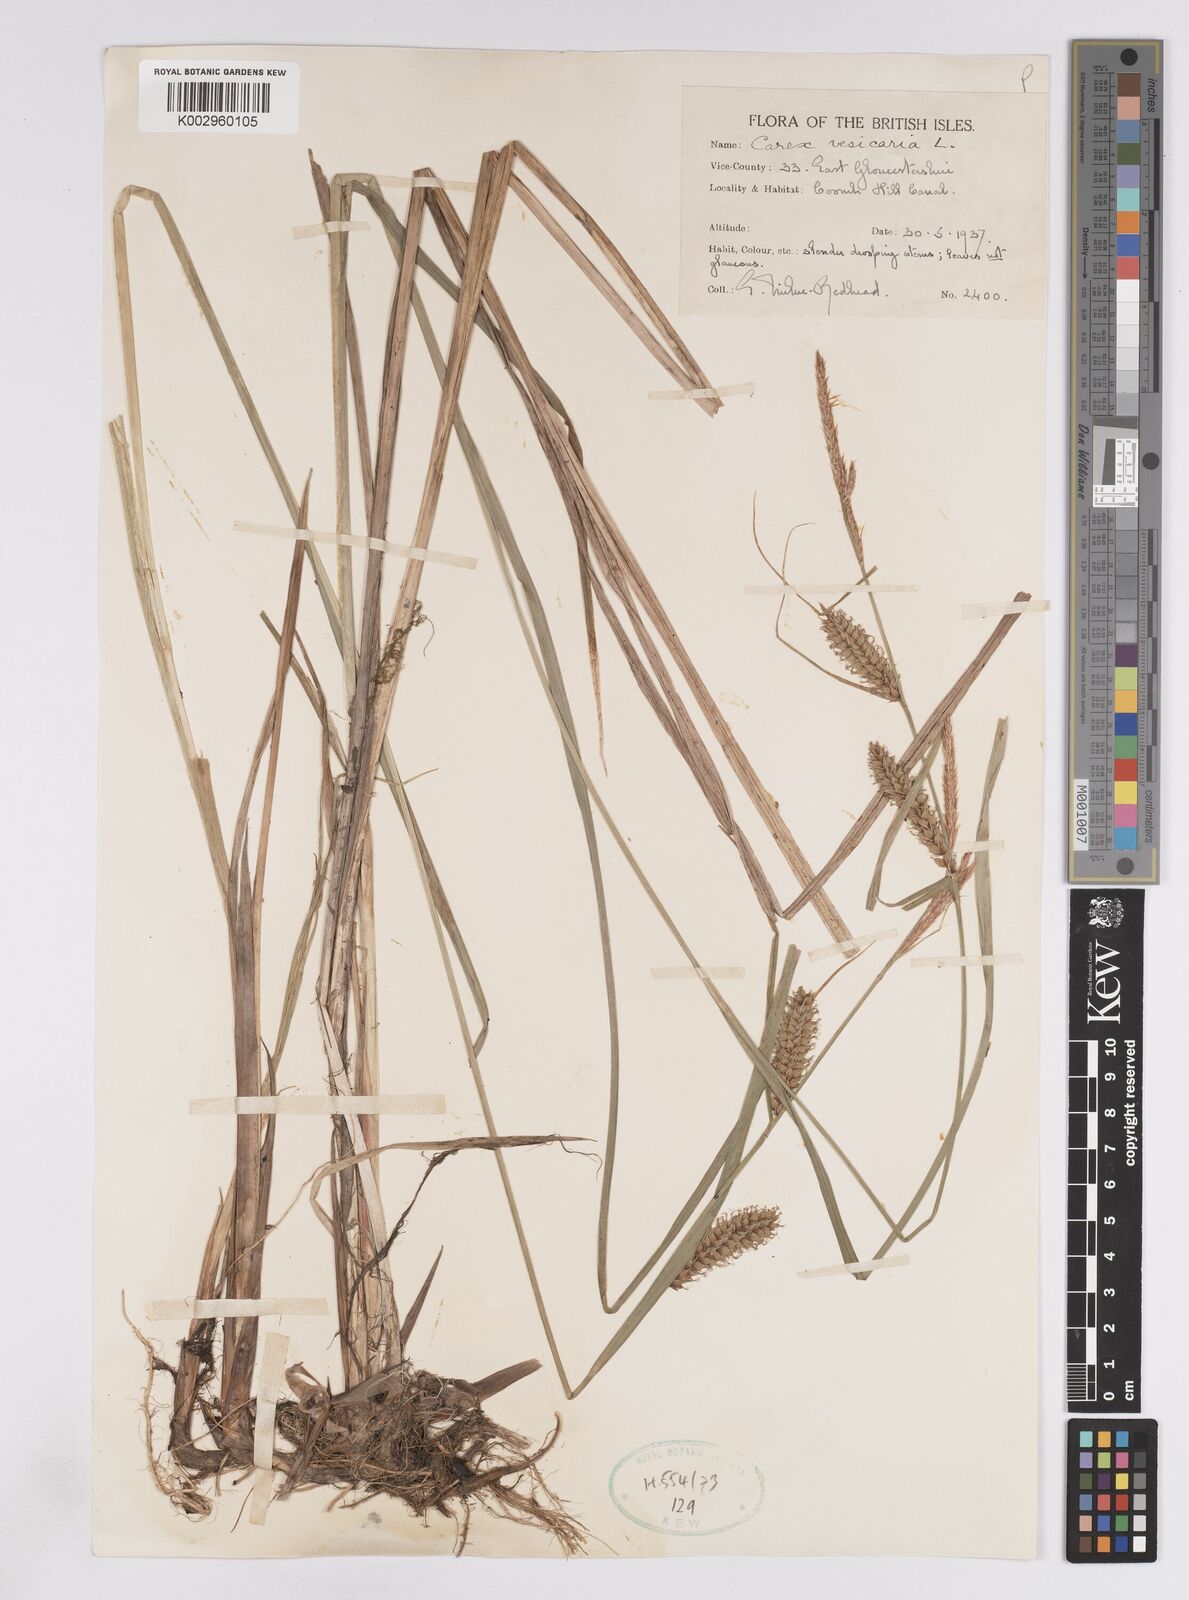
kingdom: Plantae
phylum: Tracheophyta
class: Liliopsida
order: Poales
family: Cyperaceae
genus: Carex
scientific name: Carex vesicaria
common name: Bladder-sedge
